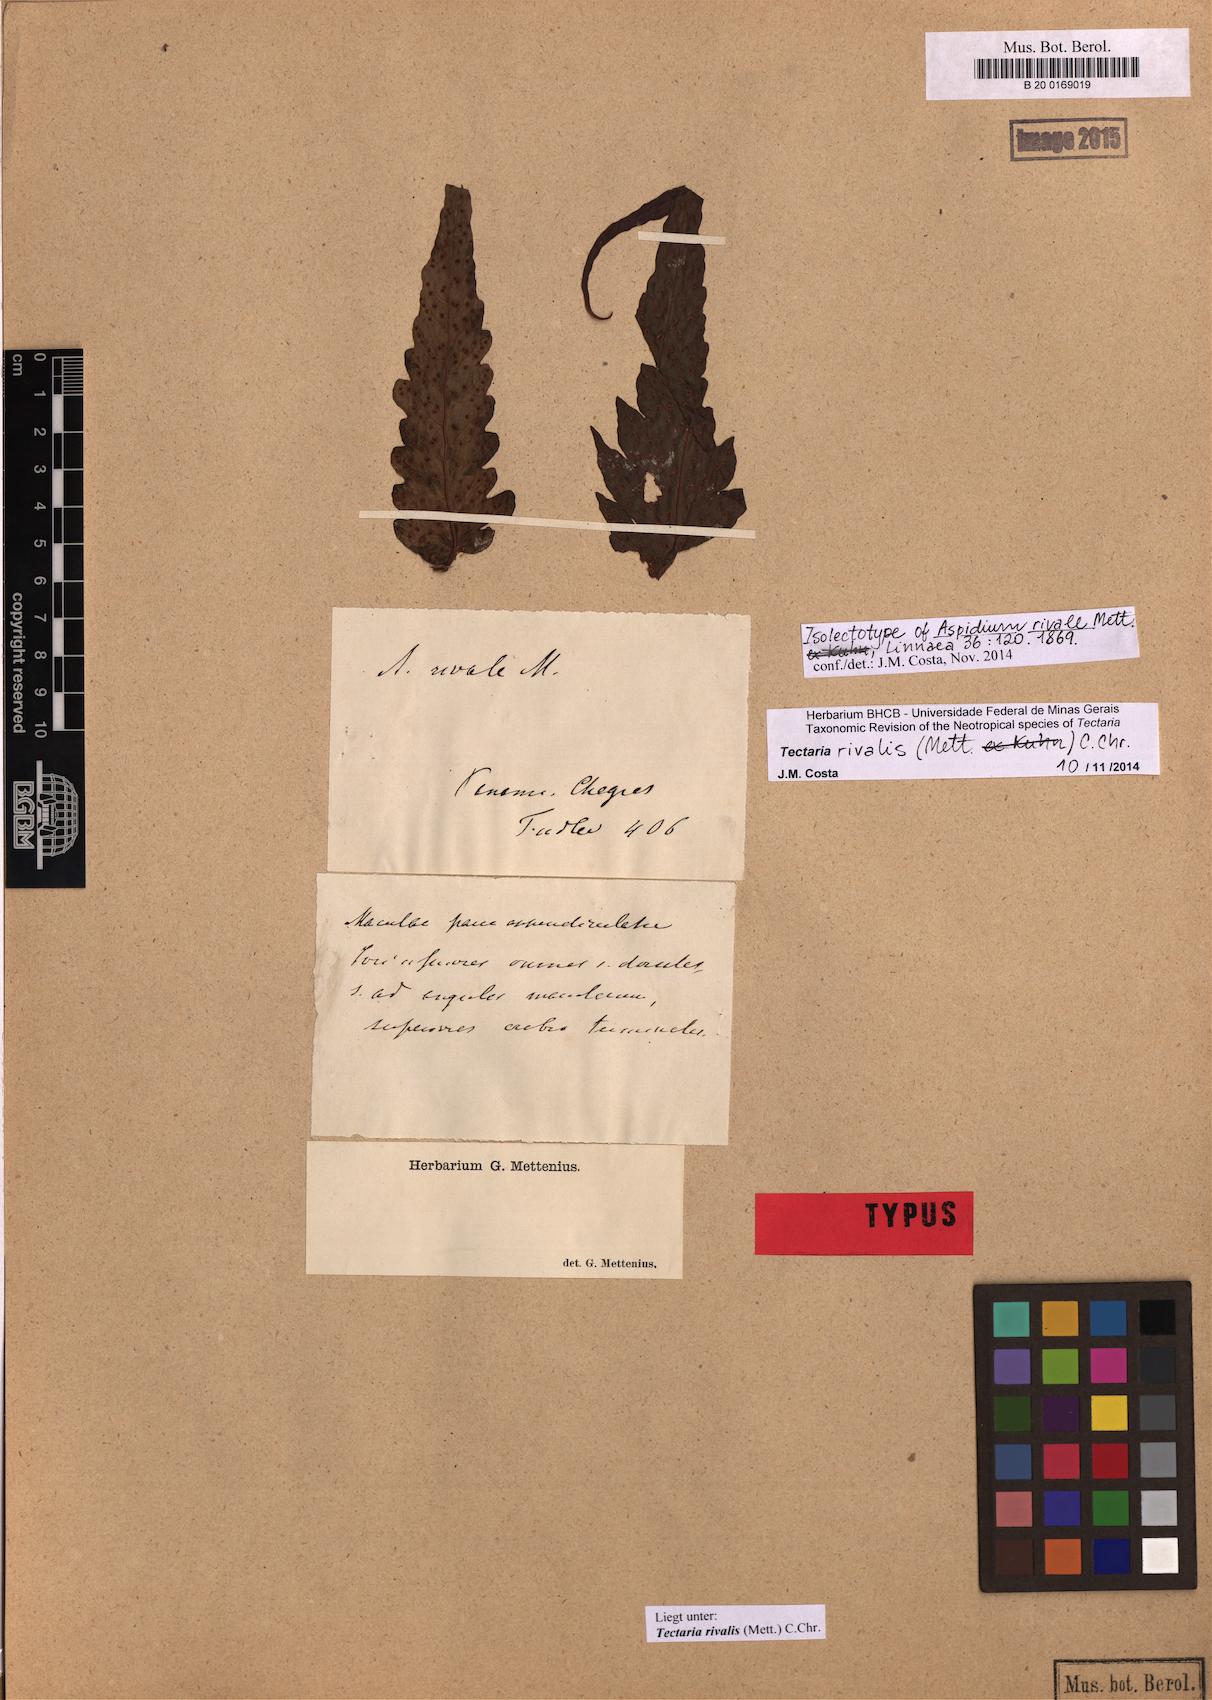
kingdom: Plantae
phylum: Tracheophyta
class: Polypodiopsida
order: Polypodiales
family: Tectariaceae
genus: Tectaria
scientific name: Tectaria rivalis
